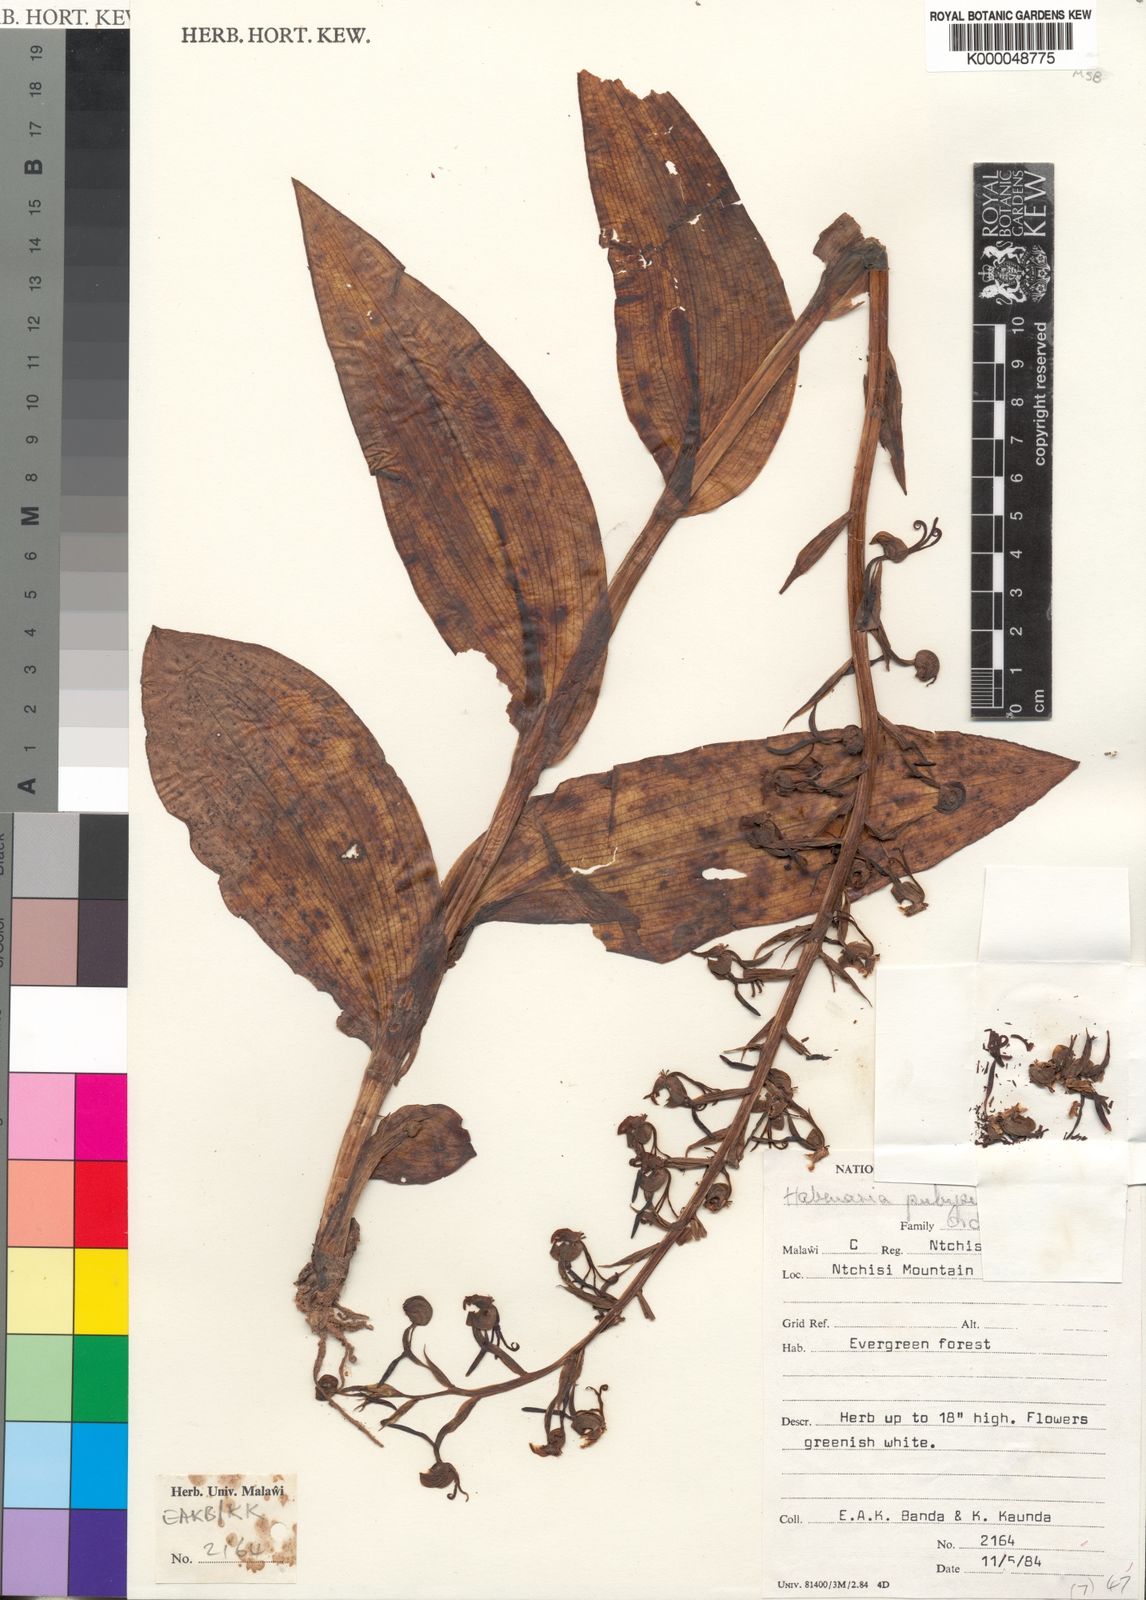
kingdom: Plantae
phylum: Tracheophyta
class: Liliopsida
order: Asparagales
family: Orchidaceae
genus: Habenaria
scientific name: Habenaria pubipetala
